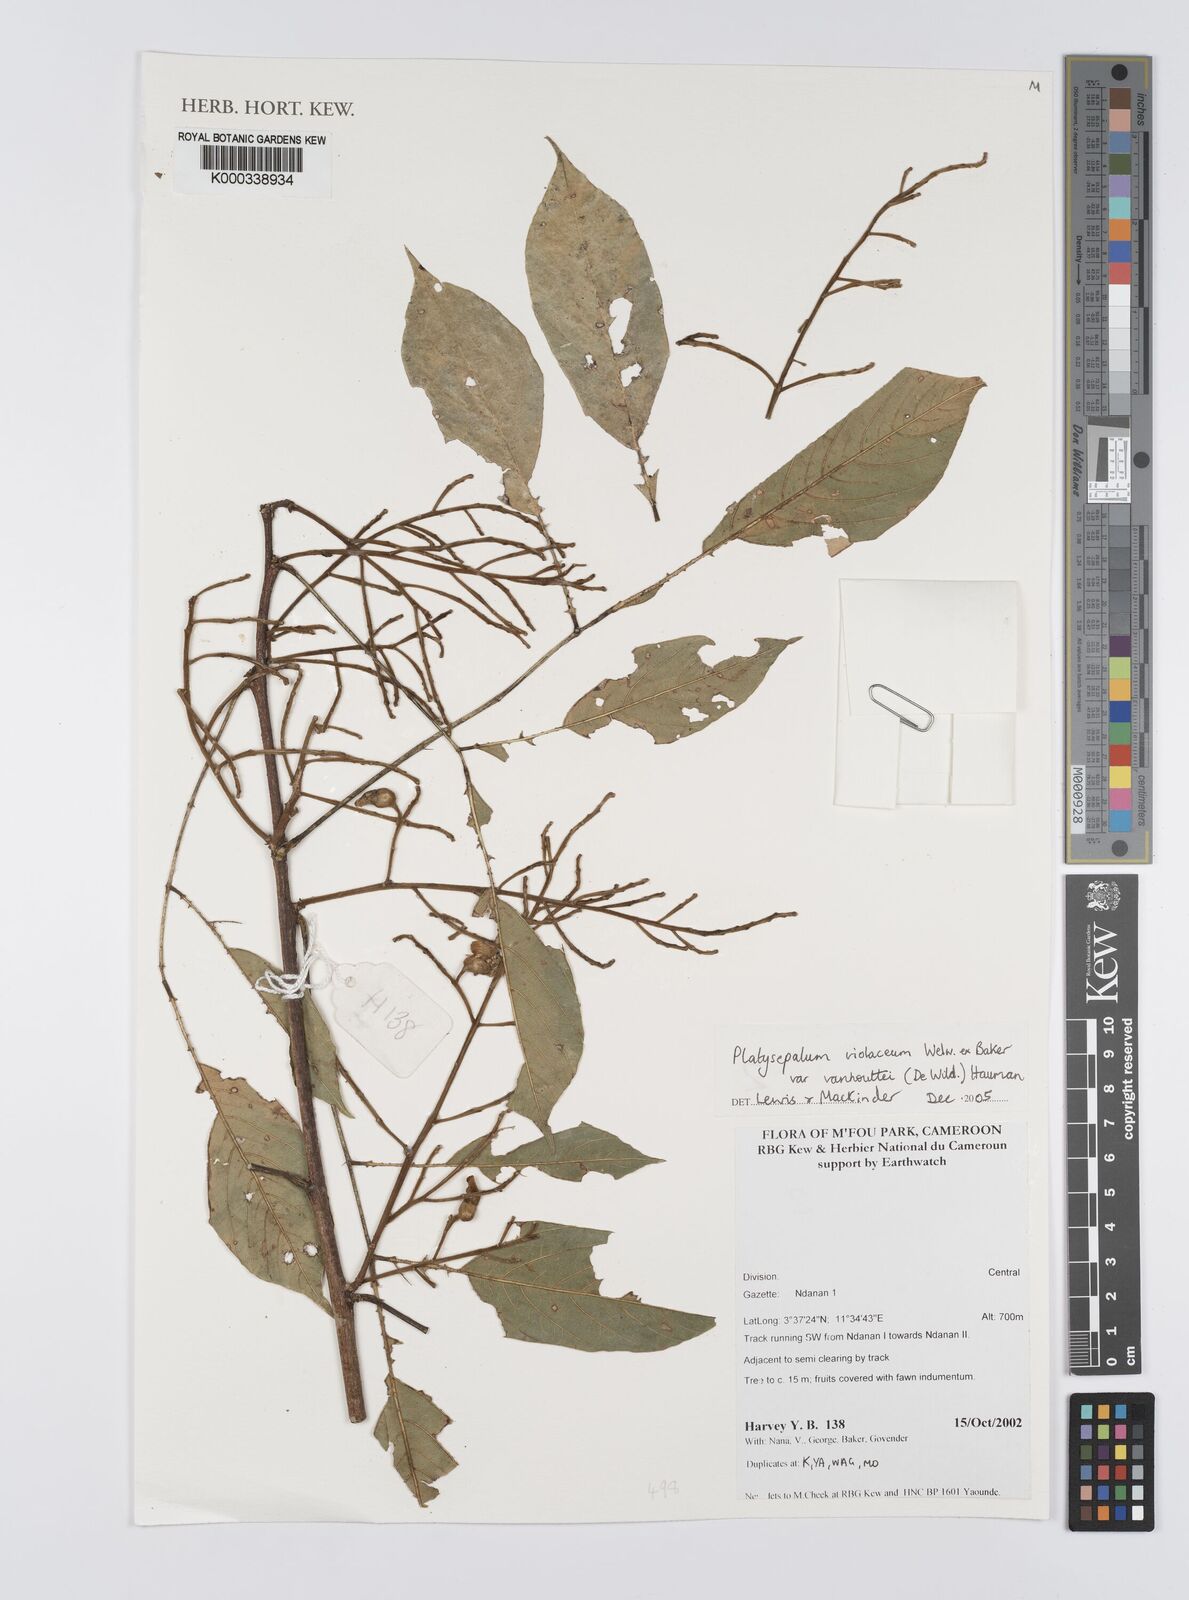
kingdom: Plantae
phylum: Tracheophyta
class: Magnoliopsida
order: Fabales
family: Fabaceae
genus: Platysepalum
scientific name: Platysepalum violaceum
